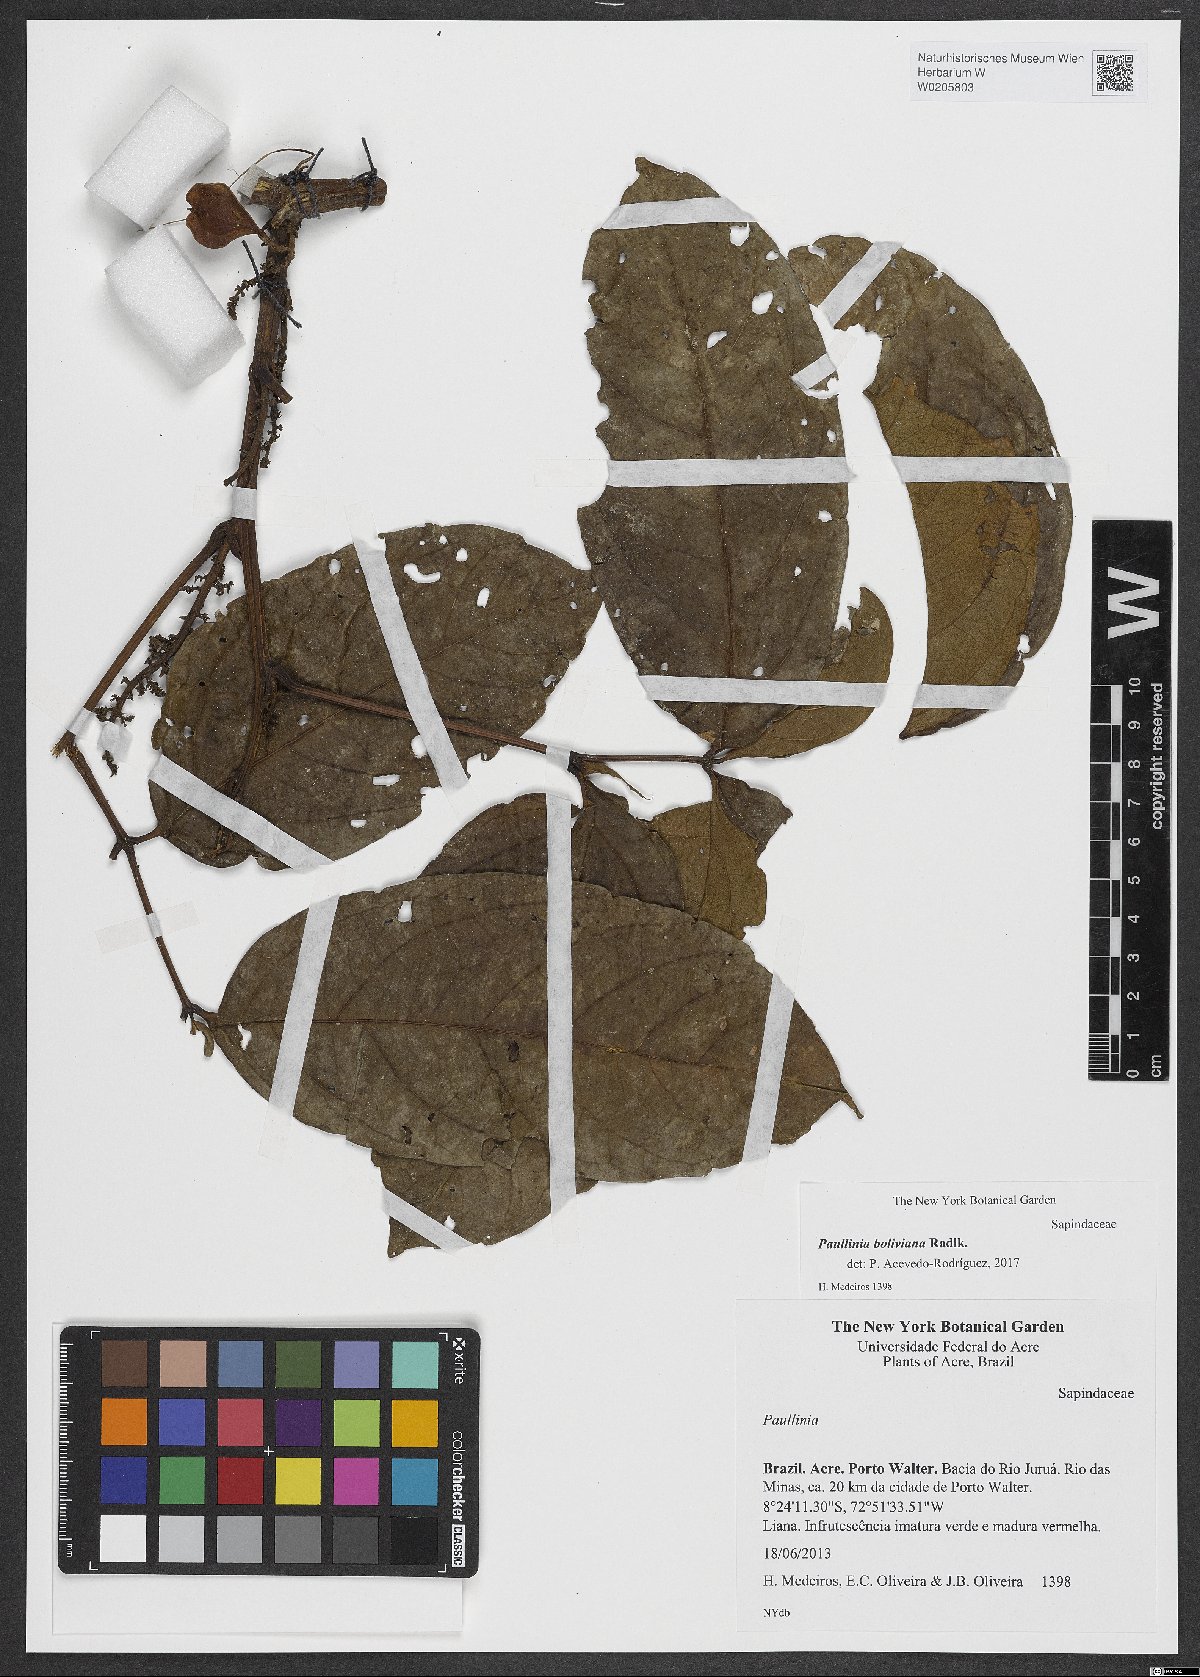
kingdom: Plantae
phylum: Tracheophyta
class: Magnoliopsida
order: Sapindales
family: Sapindaceae
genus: Paullinia
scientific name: Paullinia boliviana
